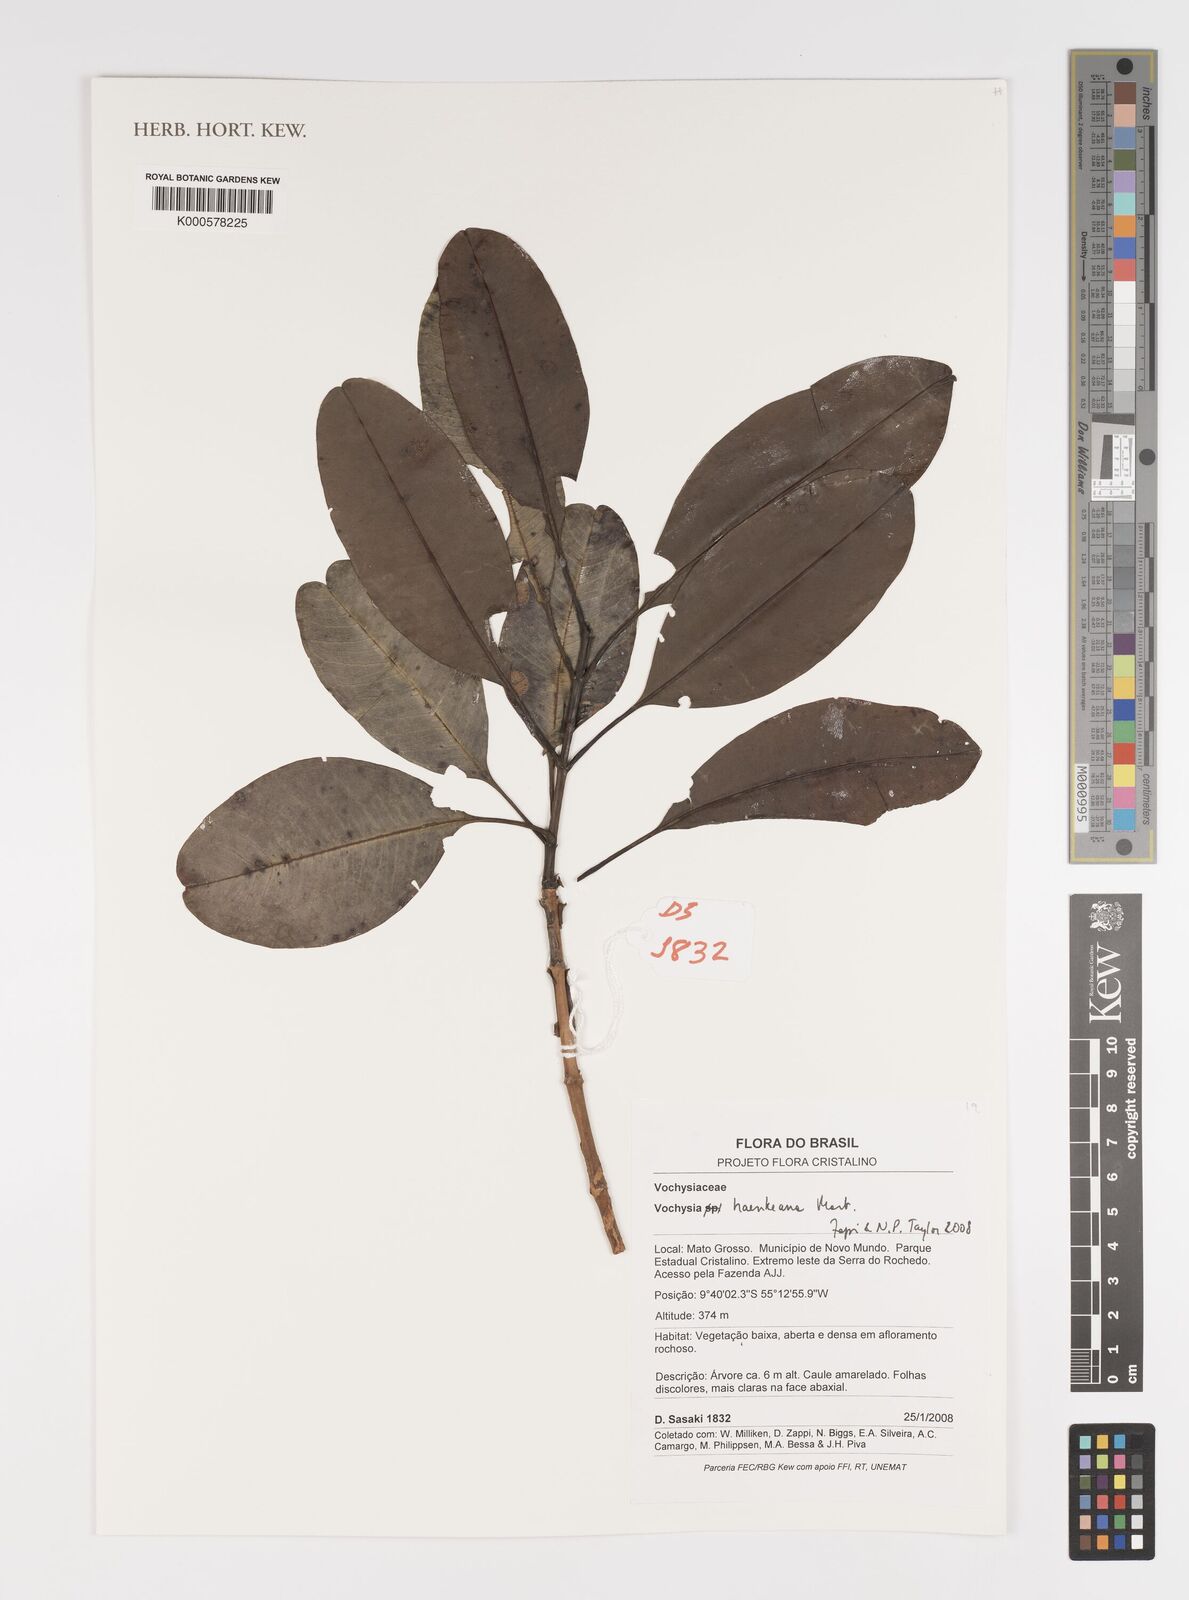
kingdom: Plantae
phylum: Tracheophyta
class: Magnoliopsida
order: Myrtales
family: Vochysiaceae
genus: Vochysia
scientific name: Vochysia haenkeana
